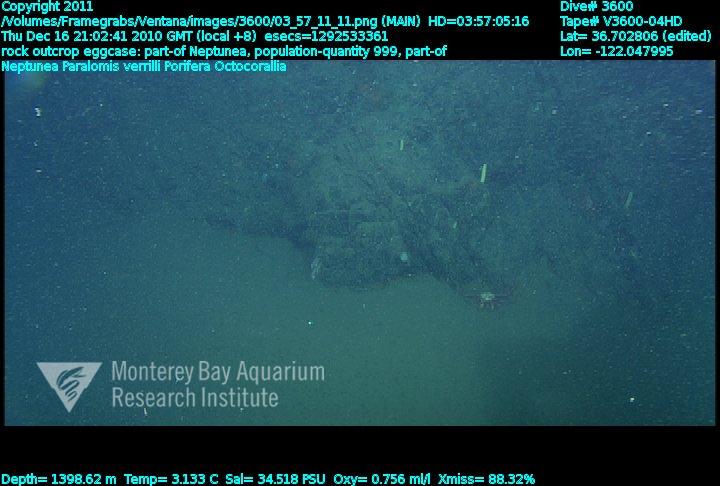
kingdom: Animalia
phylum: Porifera
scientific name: Porifera
